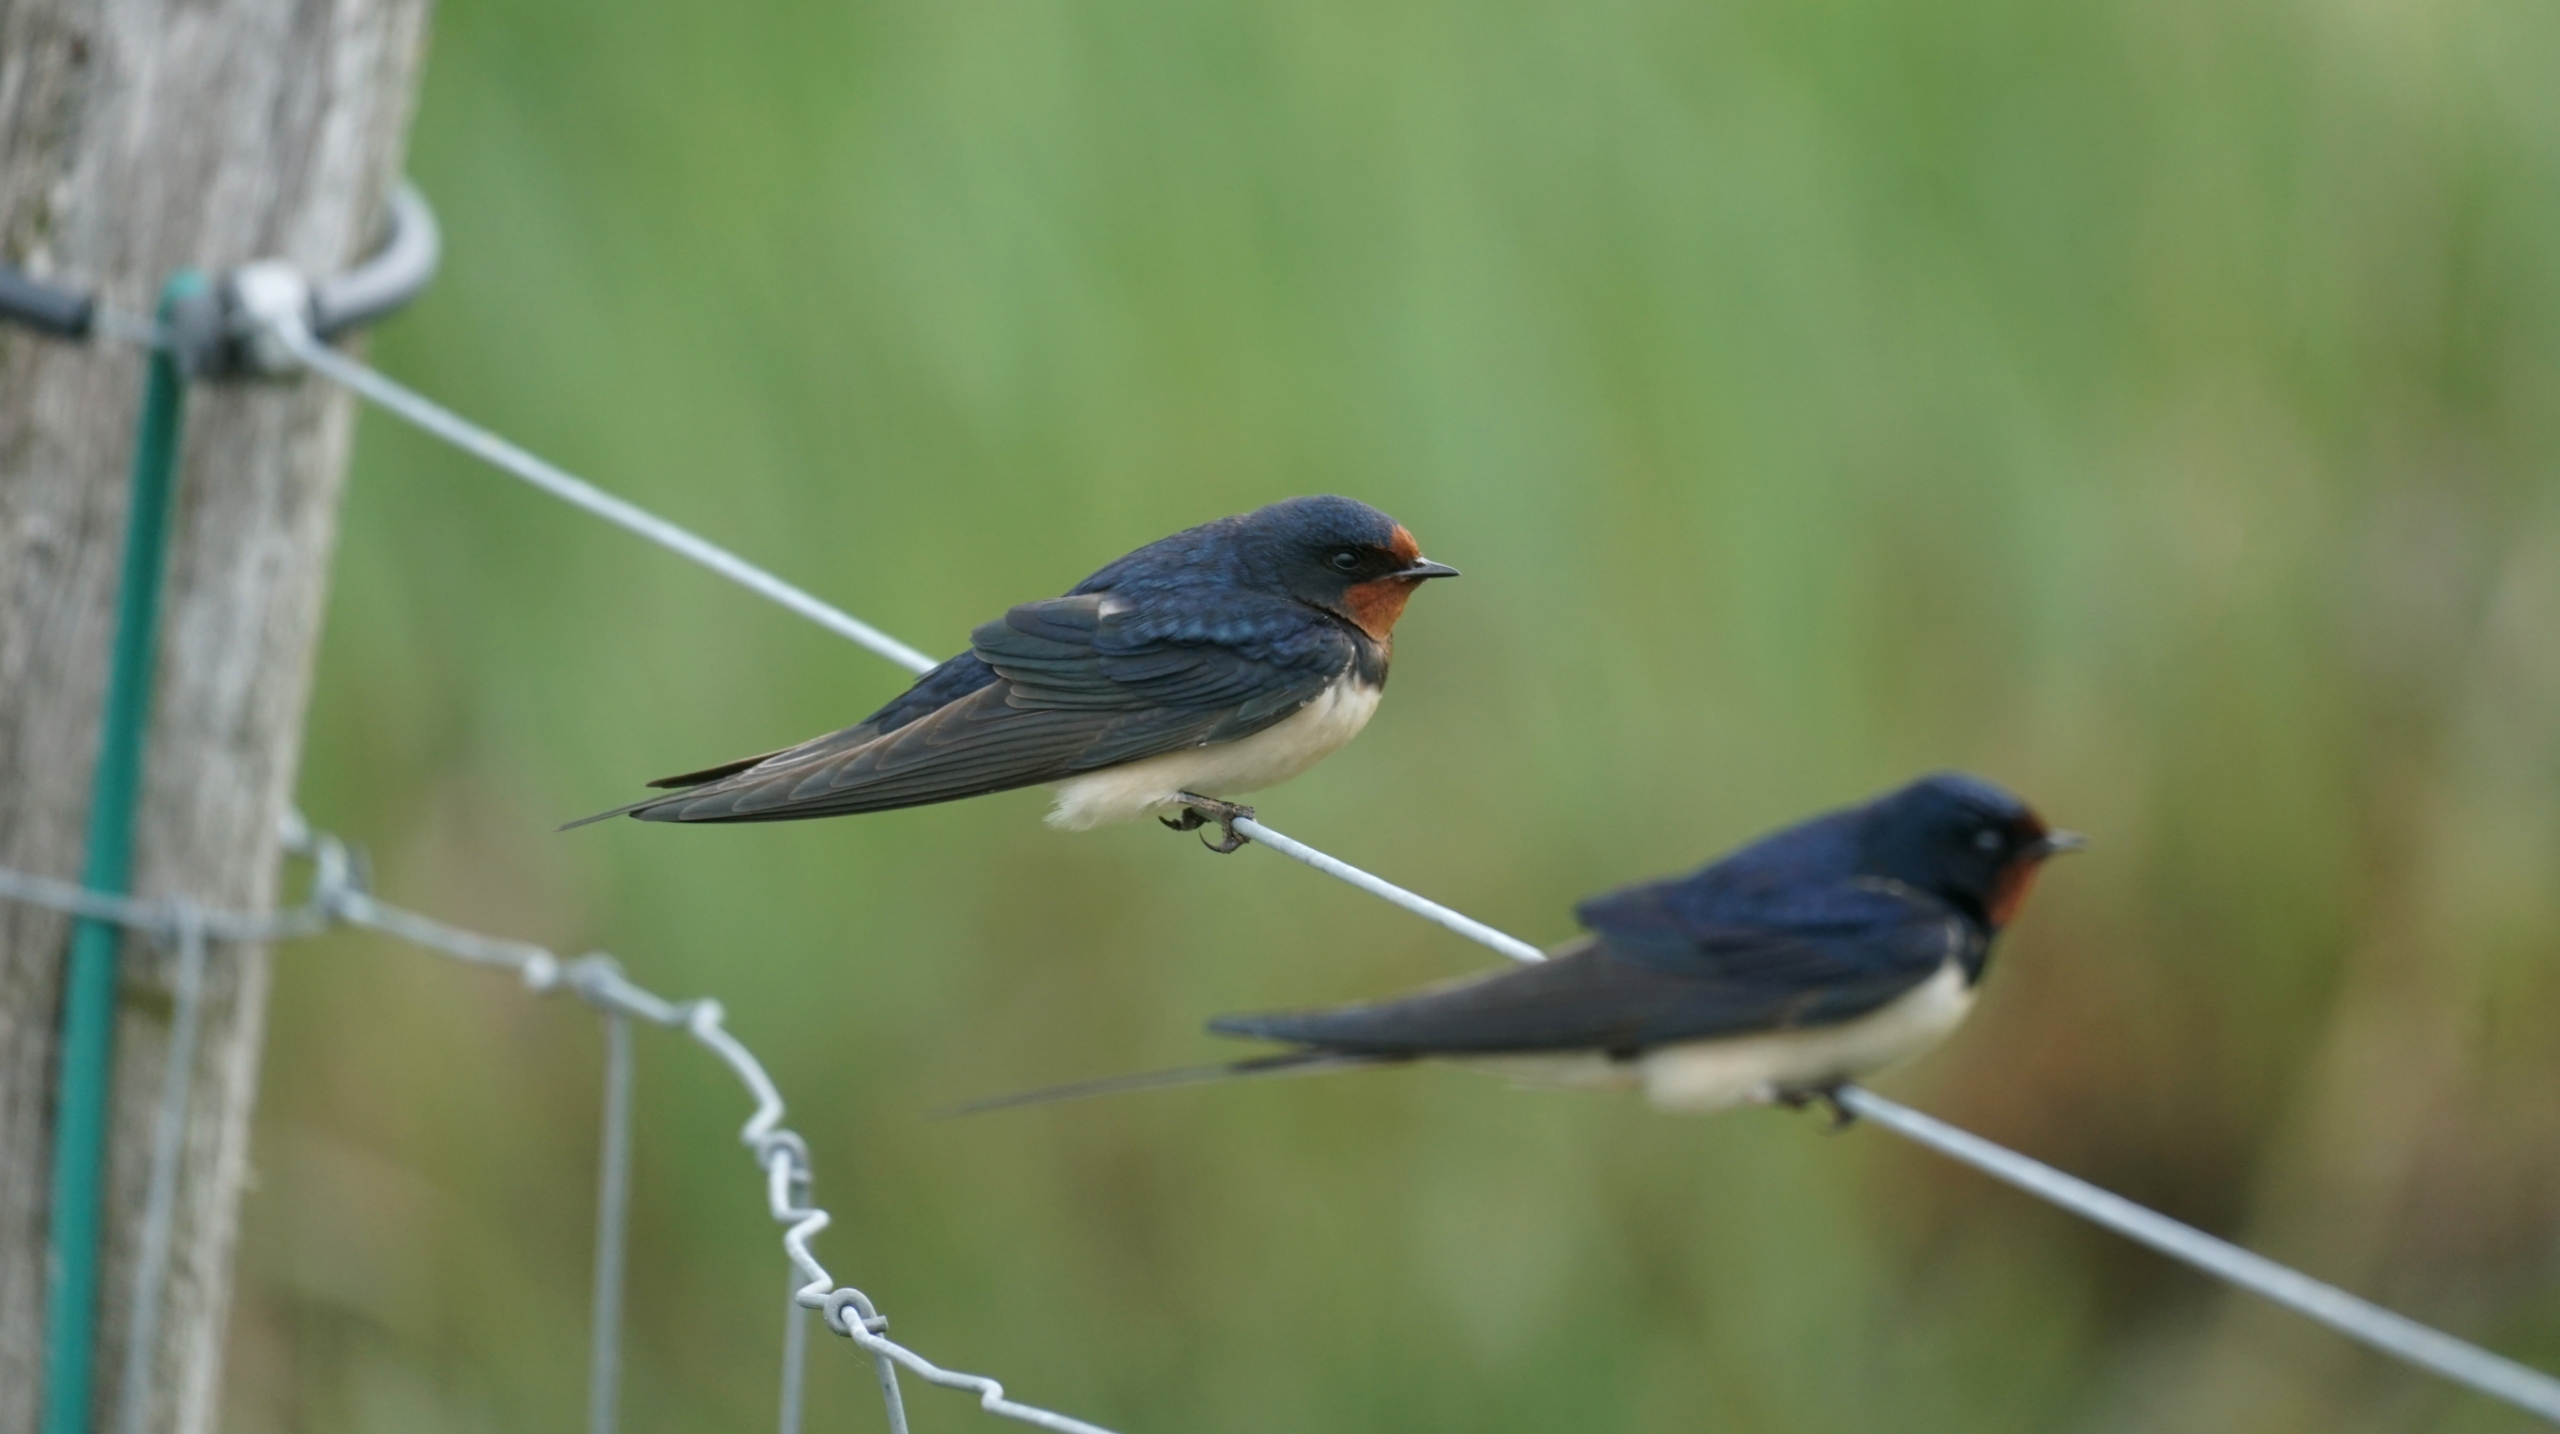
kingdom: Animalia
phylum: Chordata
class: Aves
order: Passeriformes
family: Hirundinidae
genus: Hirundo
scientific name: Hirundo rustica
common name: Landsvale
